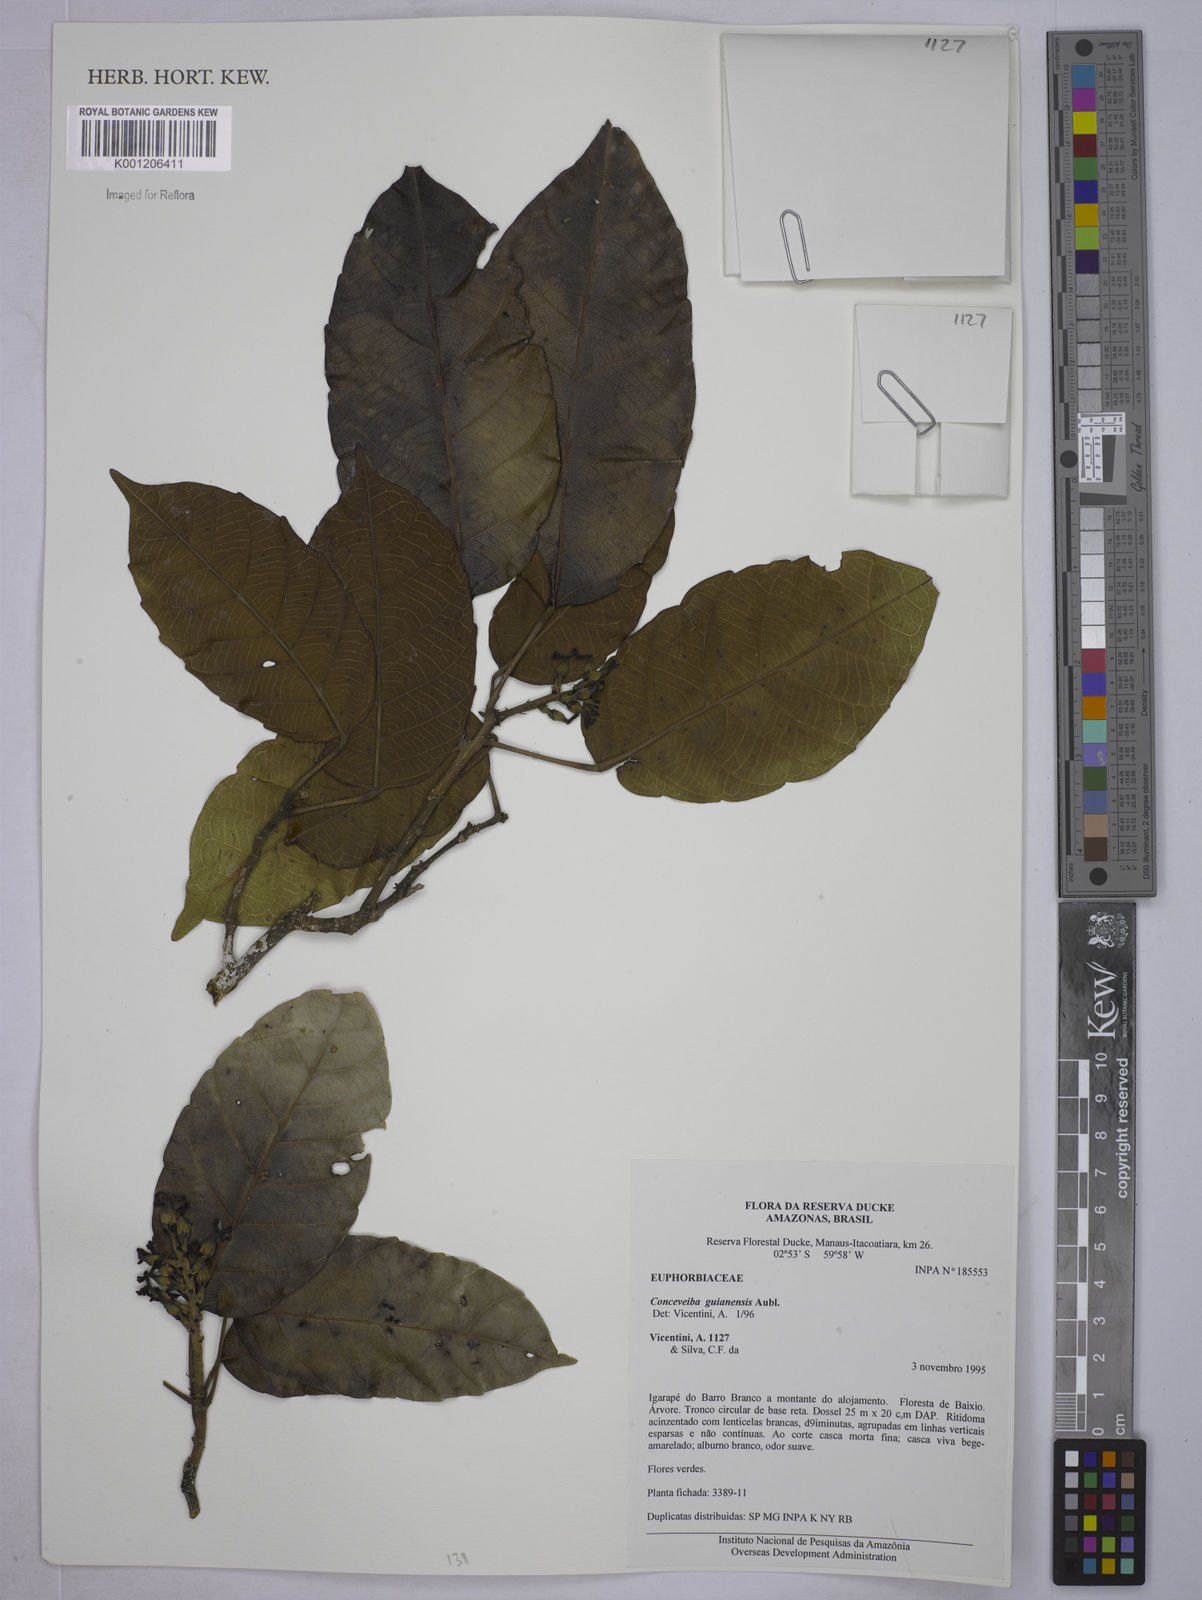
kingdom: Plantae
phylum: Tracheophyta
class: Magnoliopsida
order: Malpighiales
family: Euphorbiaceae
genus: Conceveiba
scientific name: Conceveiba guianensis
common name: Poatoru
